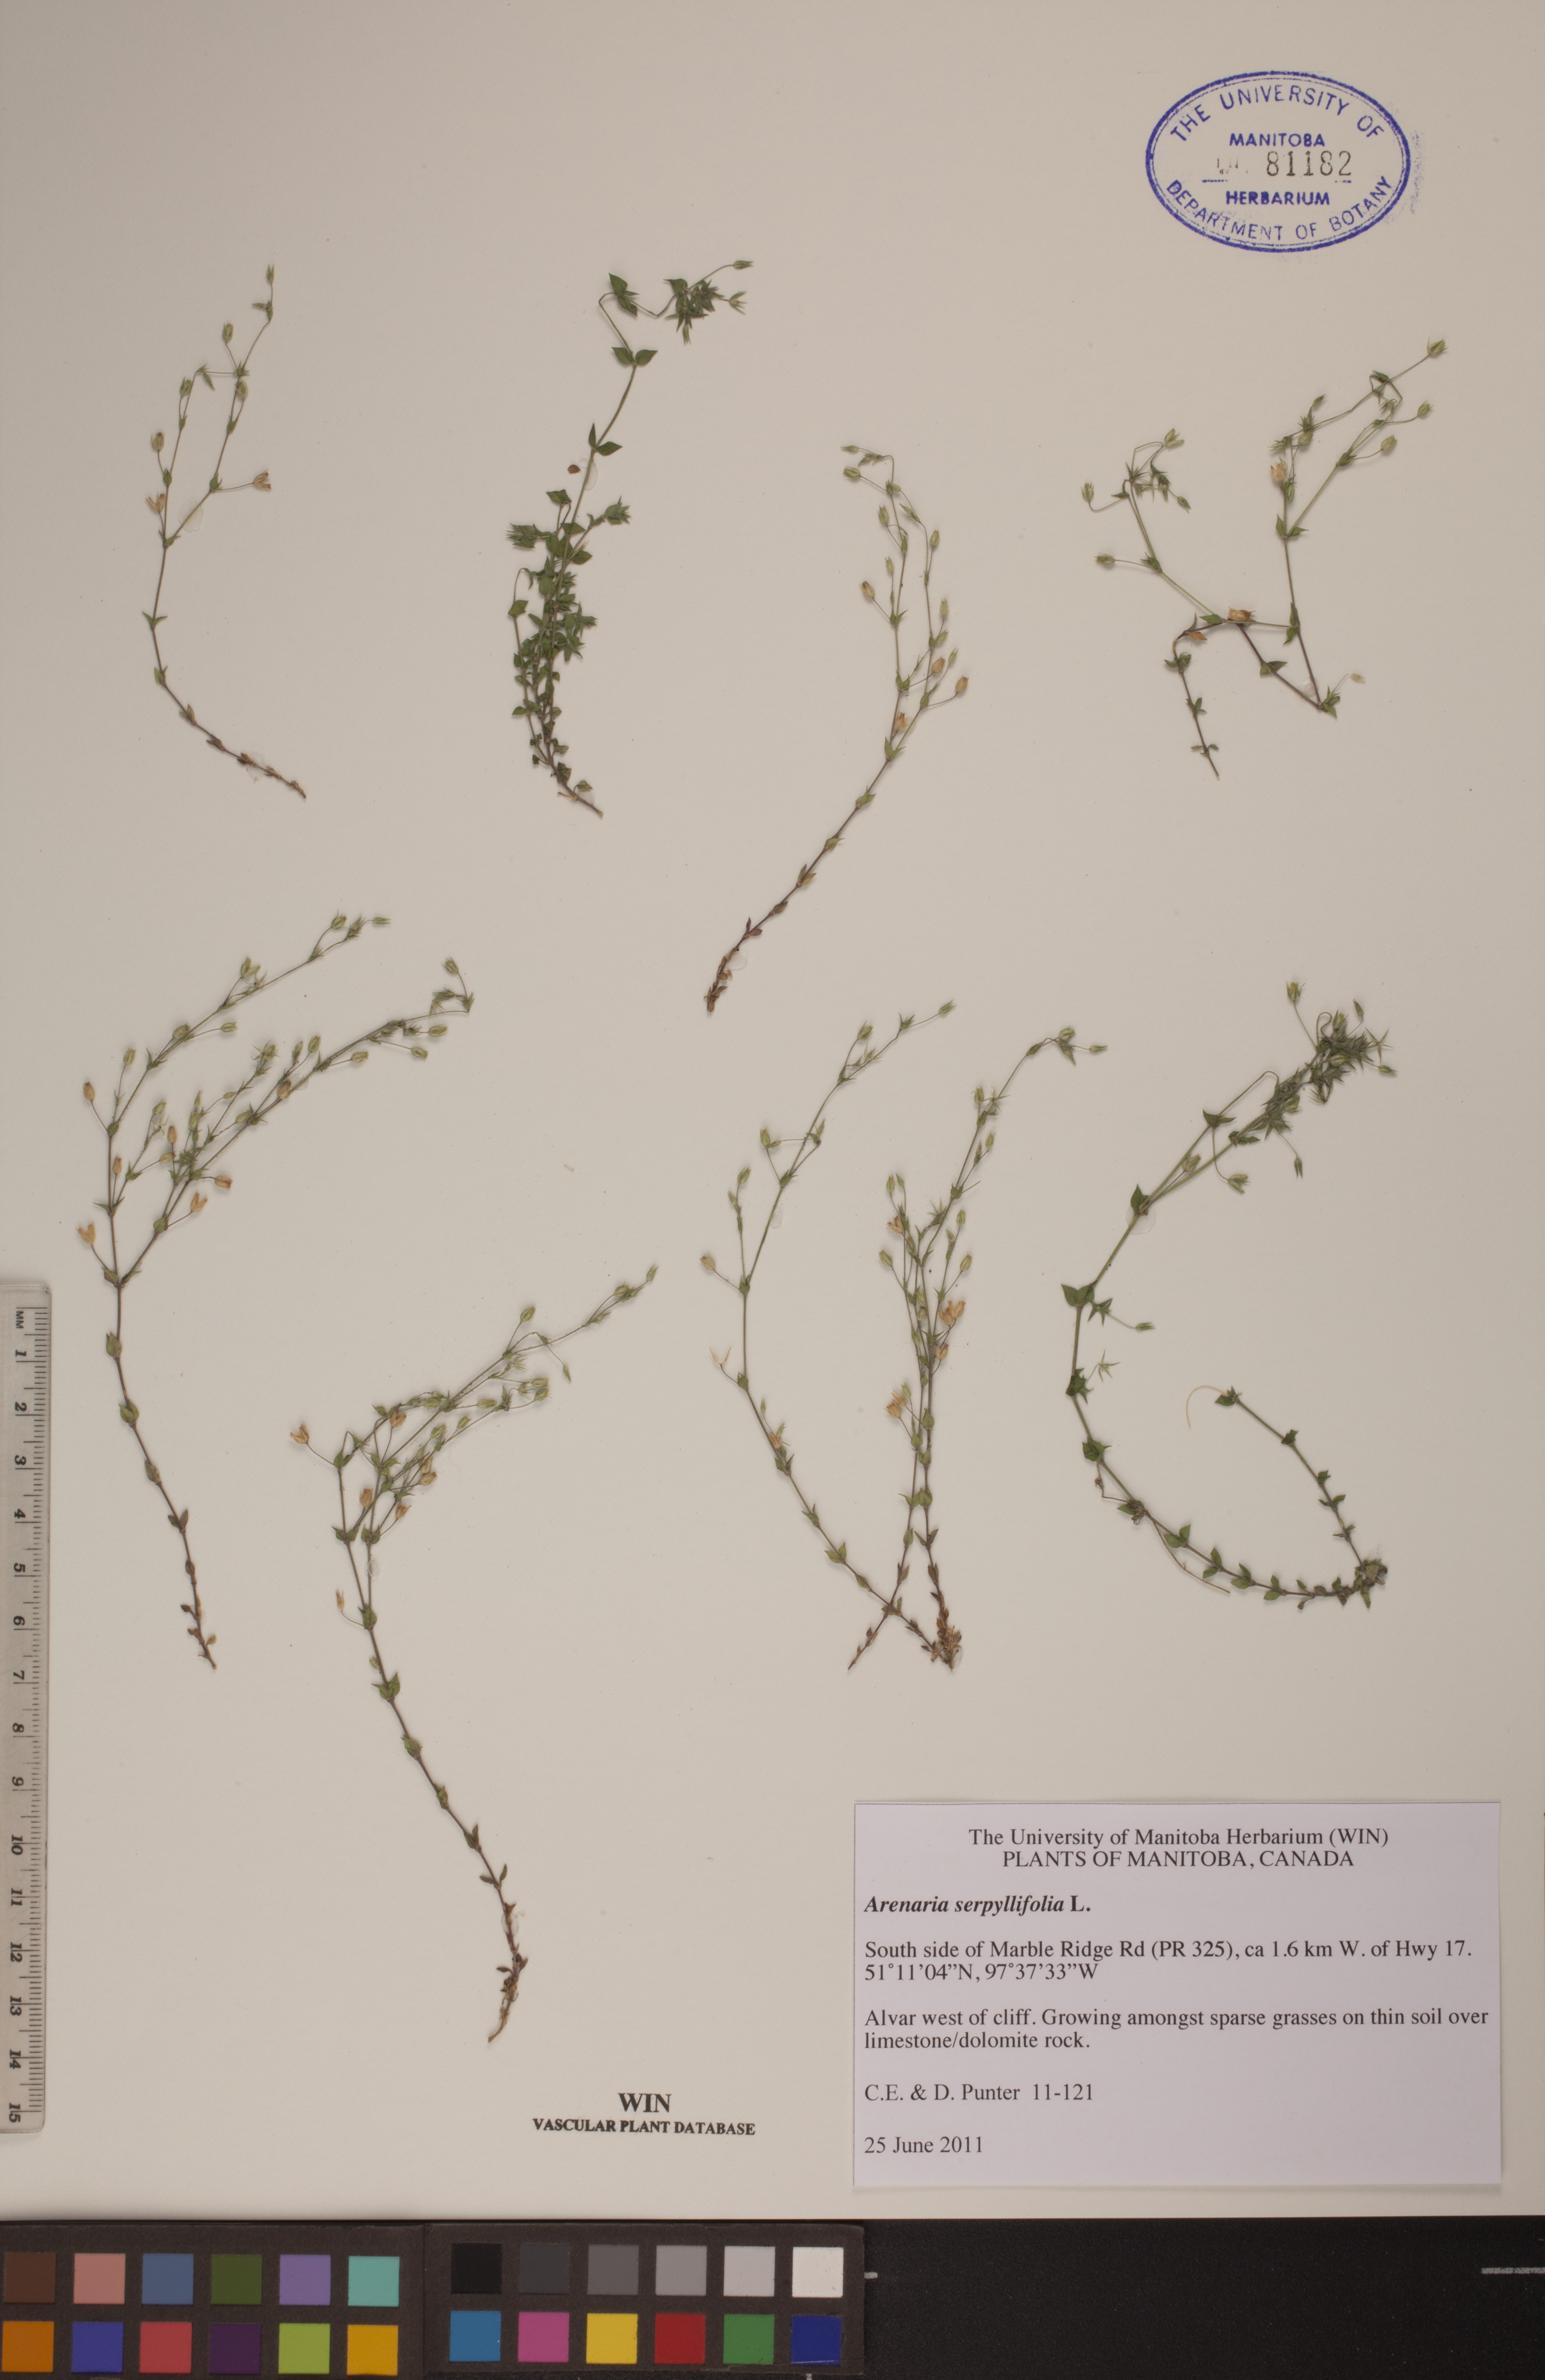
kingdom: Plantae
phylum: Tracheophyta
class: Magnoliopsida
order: Caryophyllales
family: Caryophyllaceae
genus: Arenaria
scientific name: Arenaria serpyllifolia
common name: Thyme-leaved sandwort
